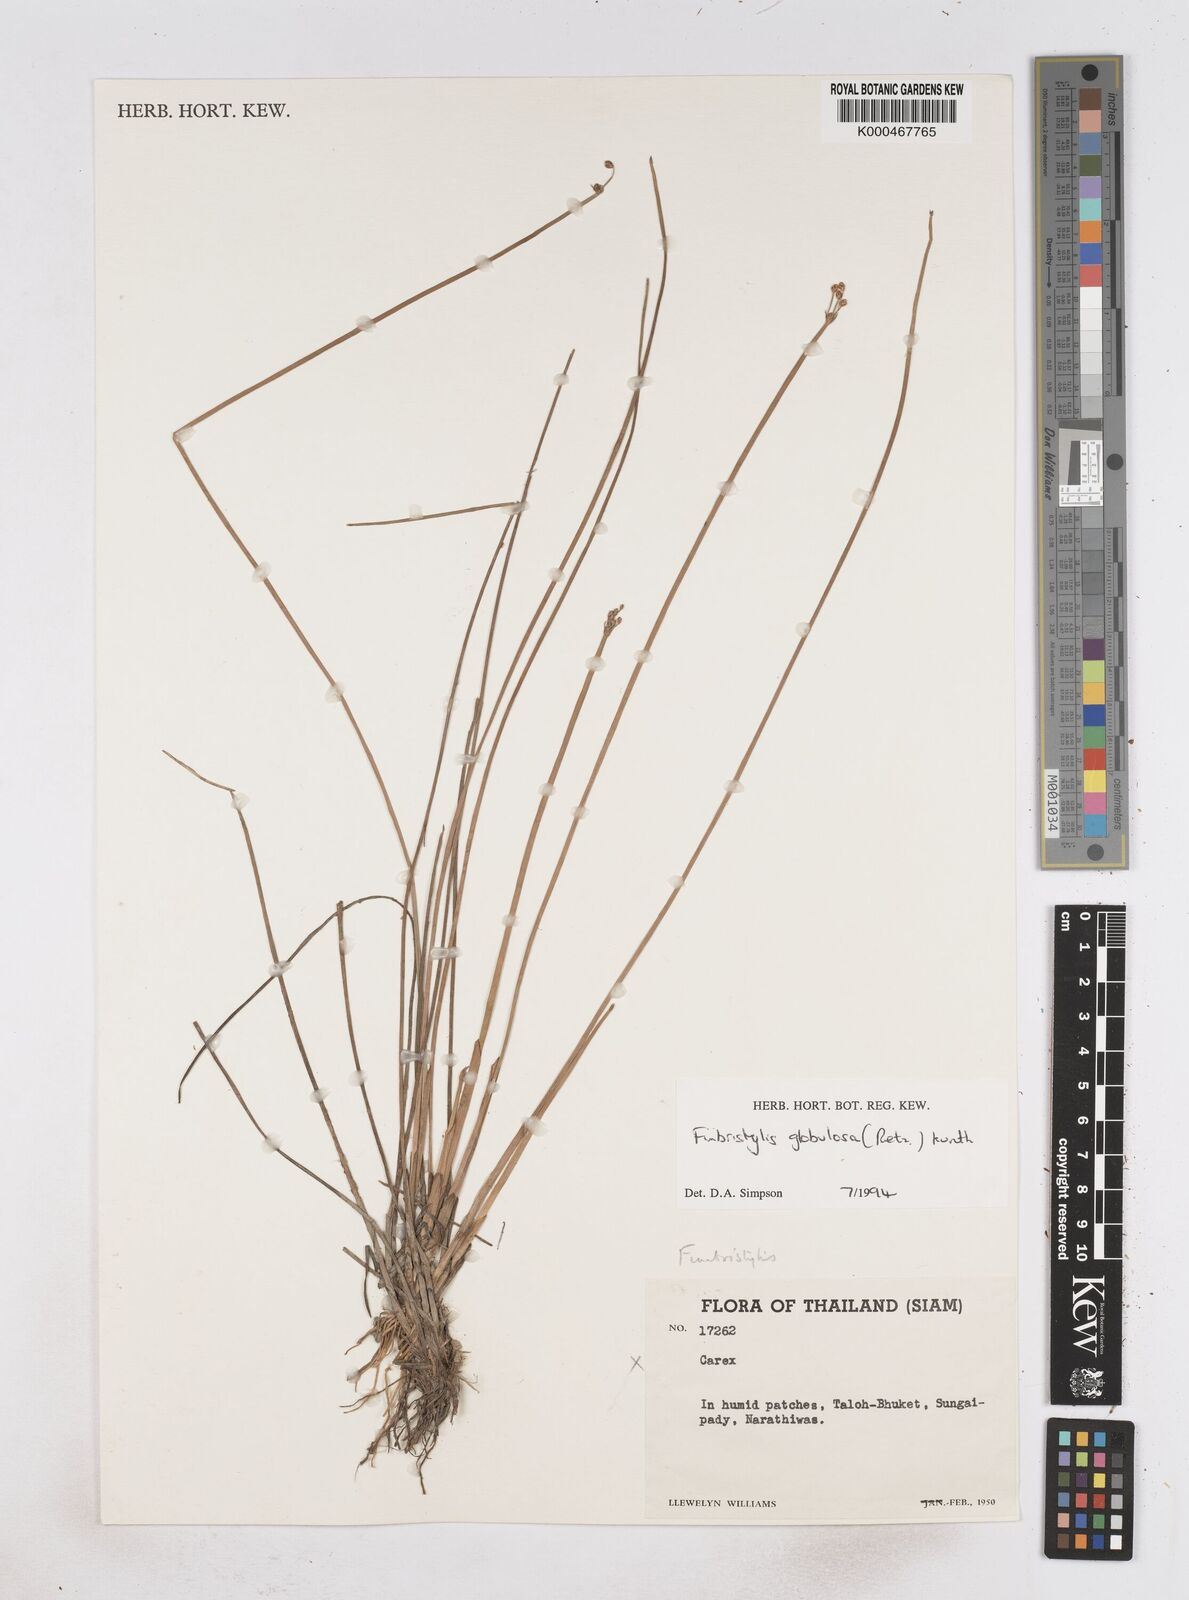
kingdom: Plantae
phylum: Tracheophyta
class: Liliopsida
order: Poales
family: Cyperaceae
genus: Fimbristylis
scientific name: Fimbristylis umbellaris
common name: Globular fimbristylis
